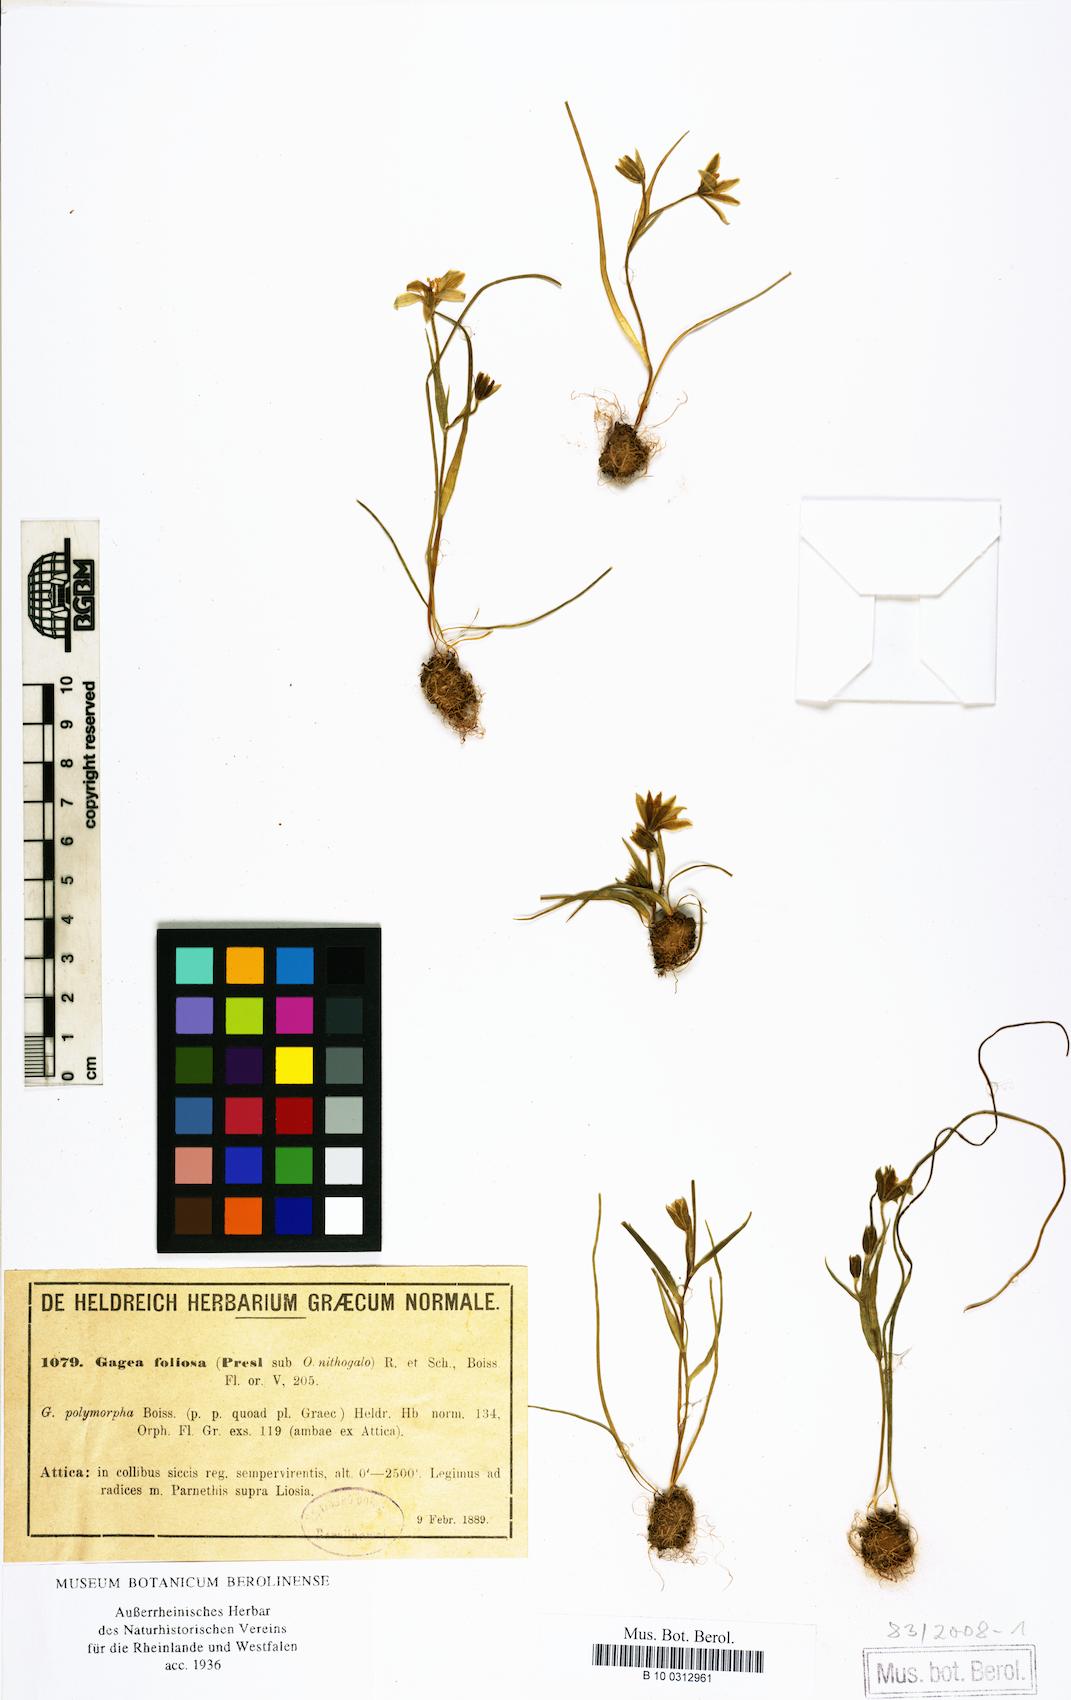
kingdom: Plantae
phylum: Tracheophyta
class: Liliopsida
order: Liliales
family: Liliaceae
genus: Gagea
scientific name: Gagea foliosa
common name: Leafy gagea
